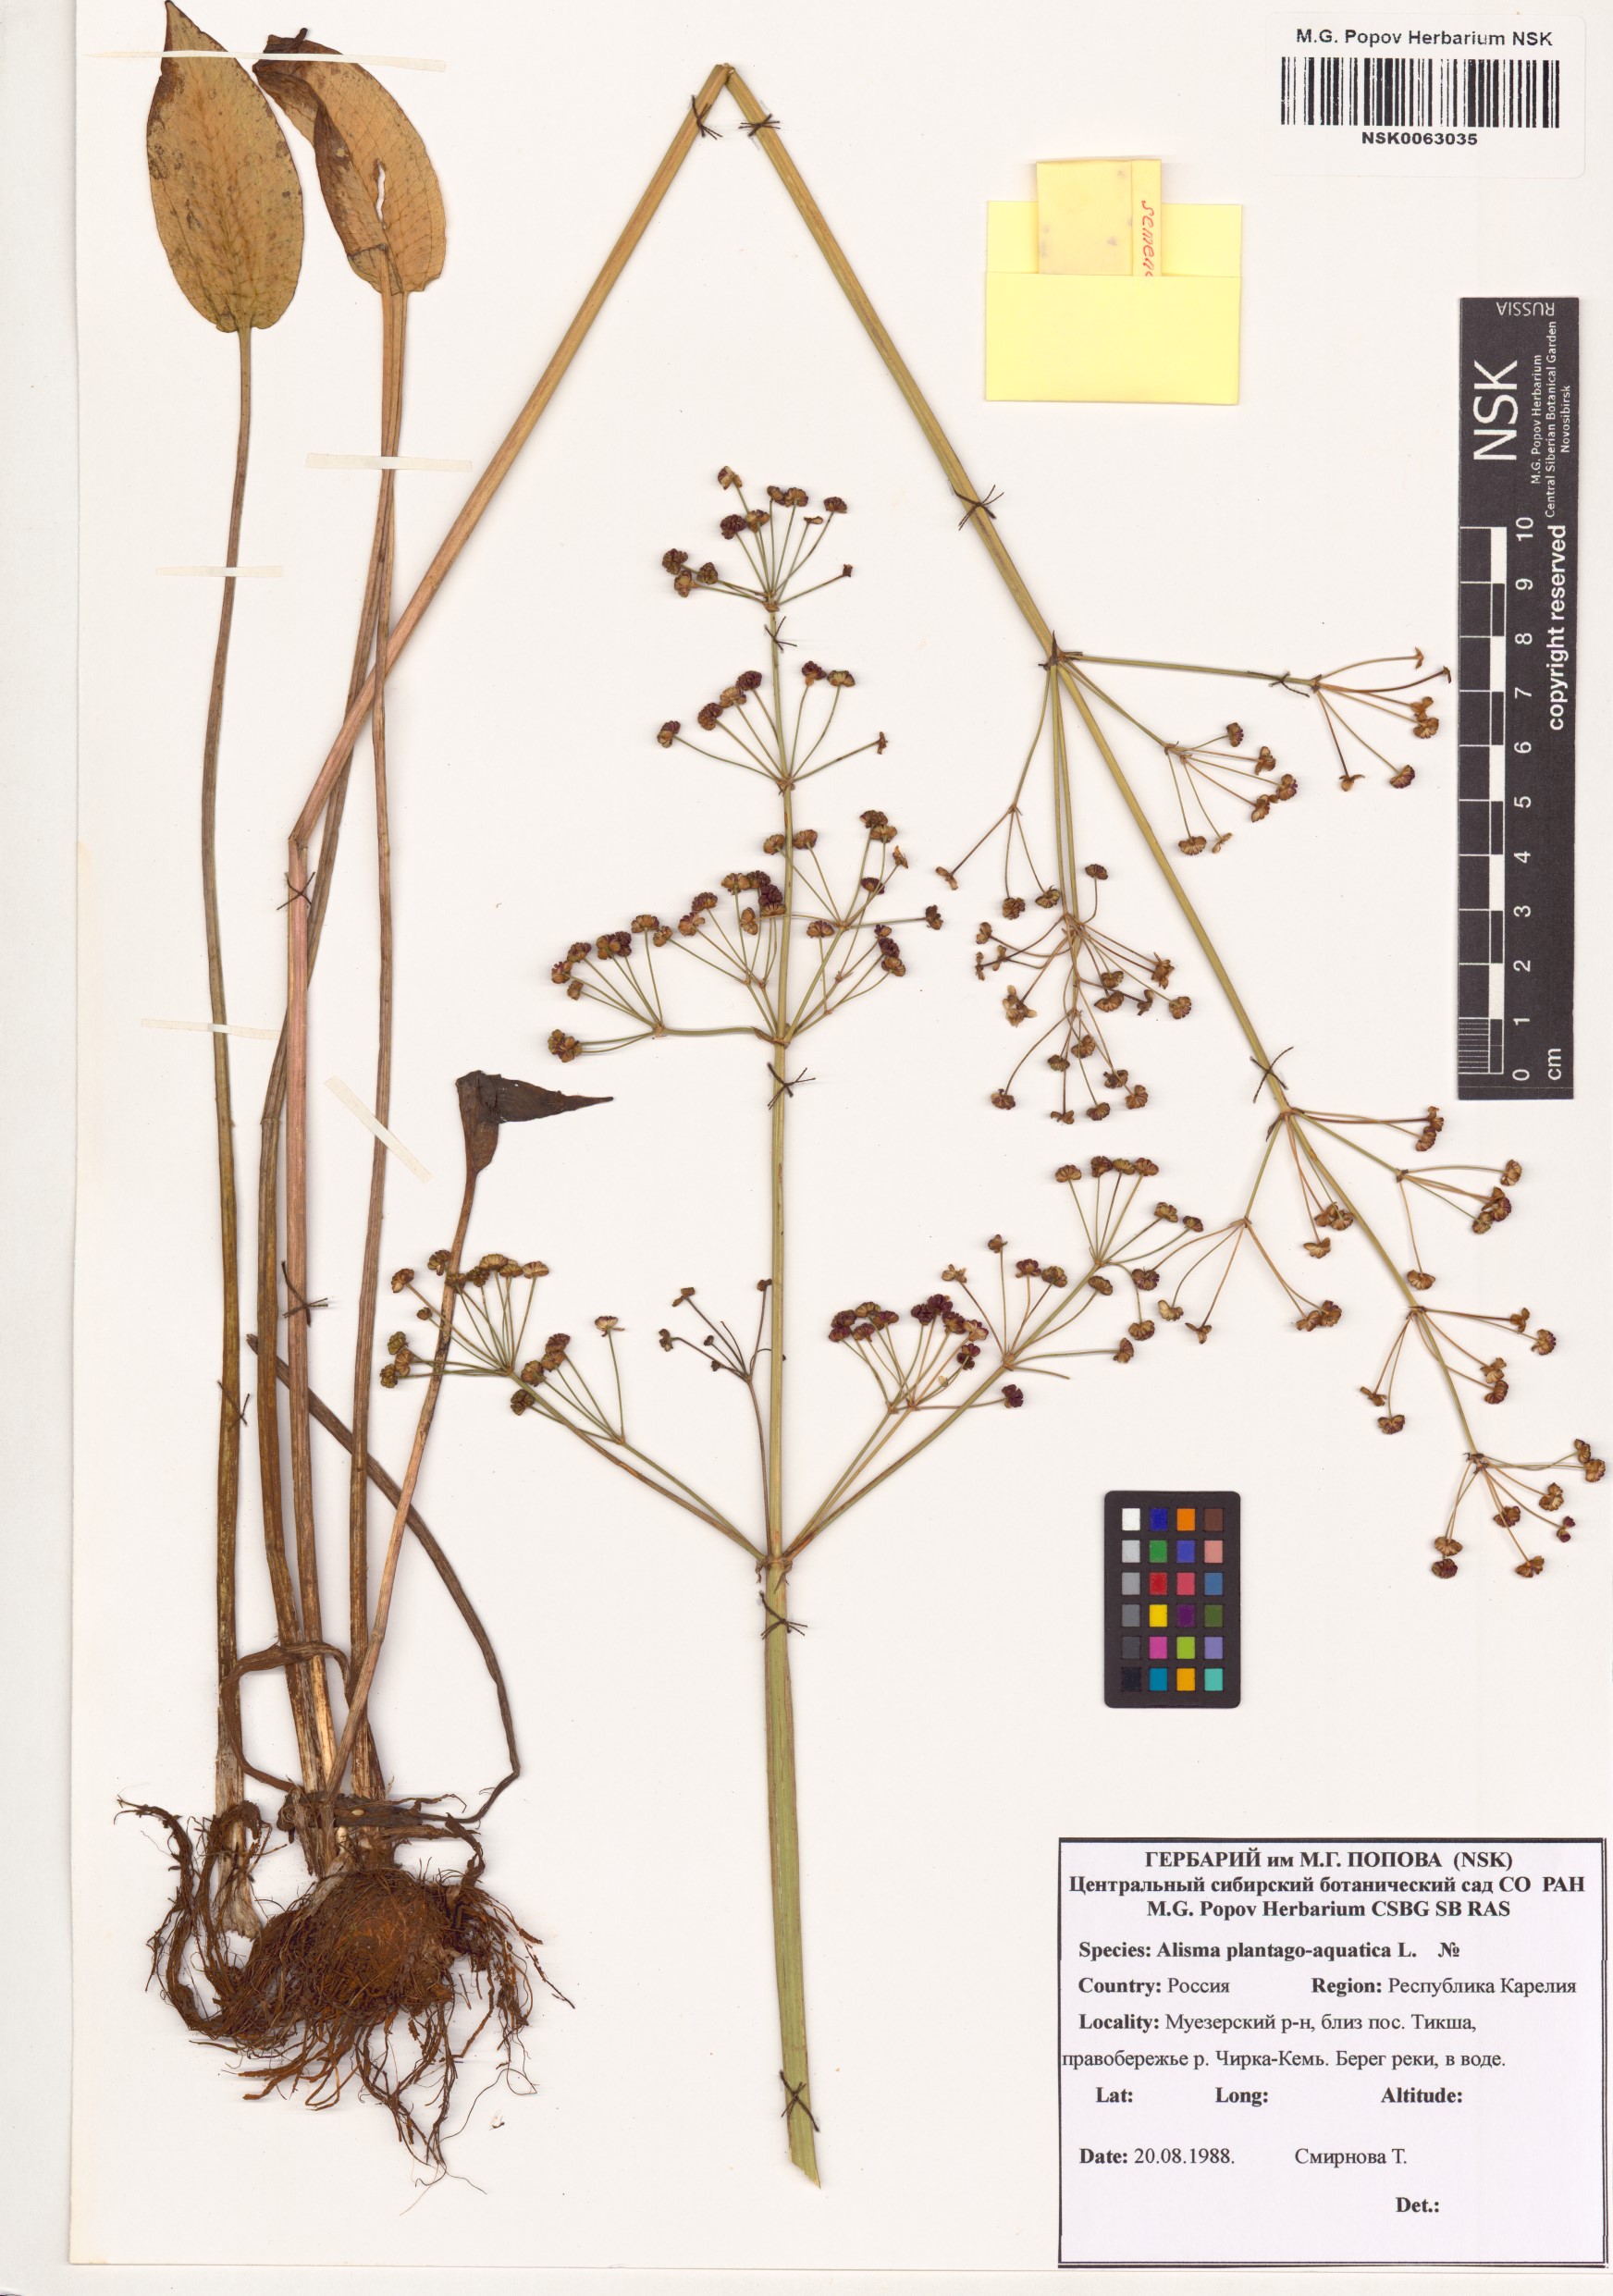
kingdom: Plantae
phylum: Tracheophyta
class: Liliopsida
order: Alismatales
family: Alismataceae
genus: Alisma
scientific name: Alisma plantago-aquatica
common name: Water-plantain
